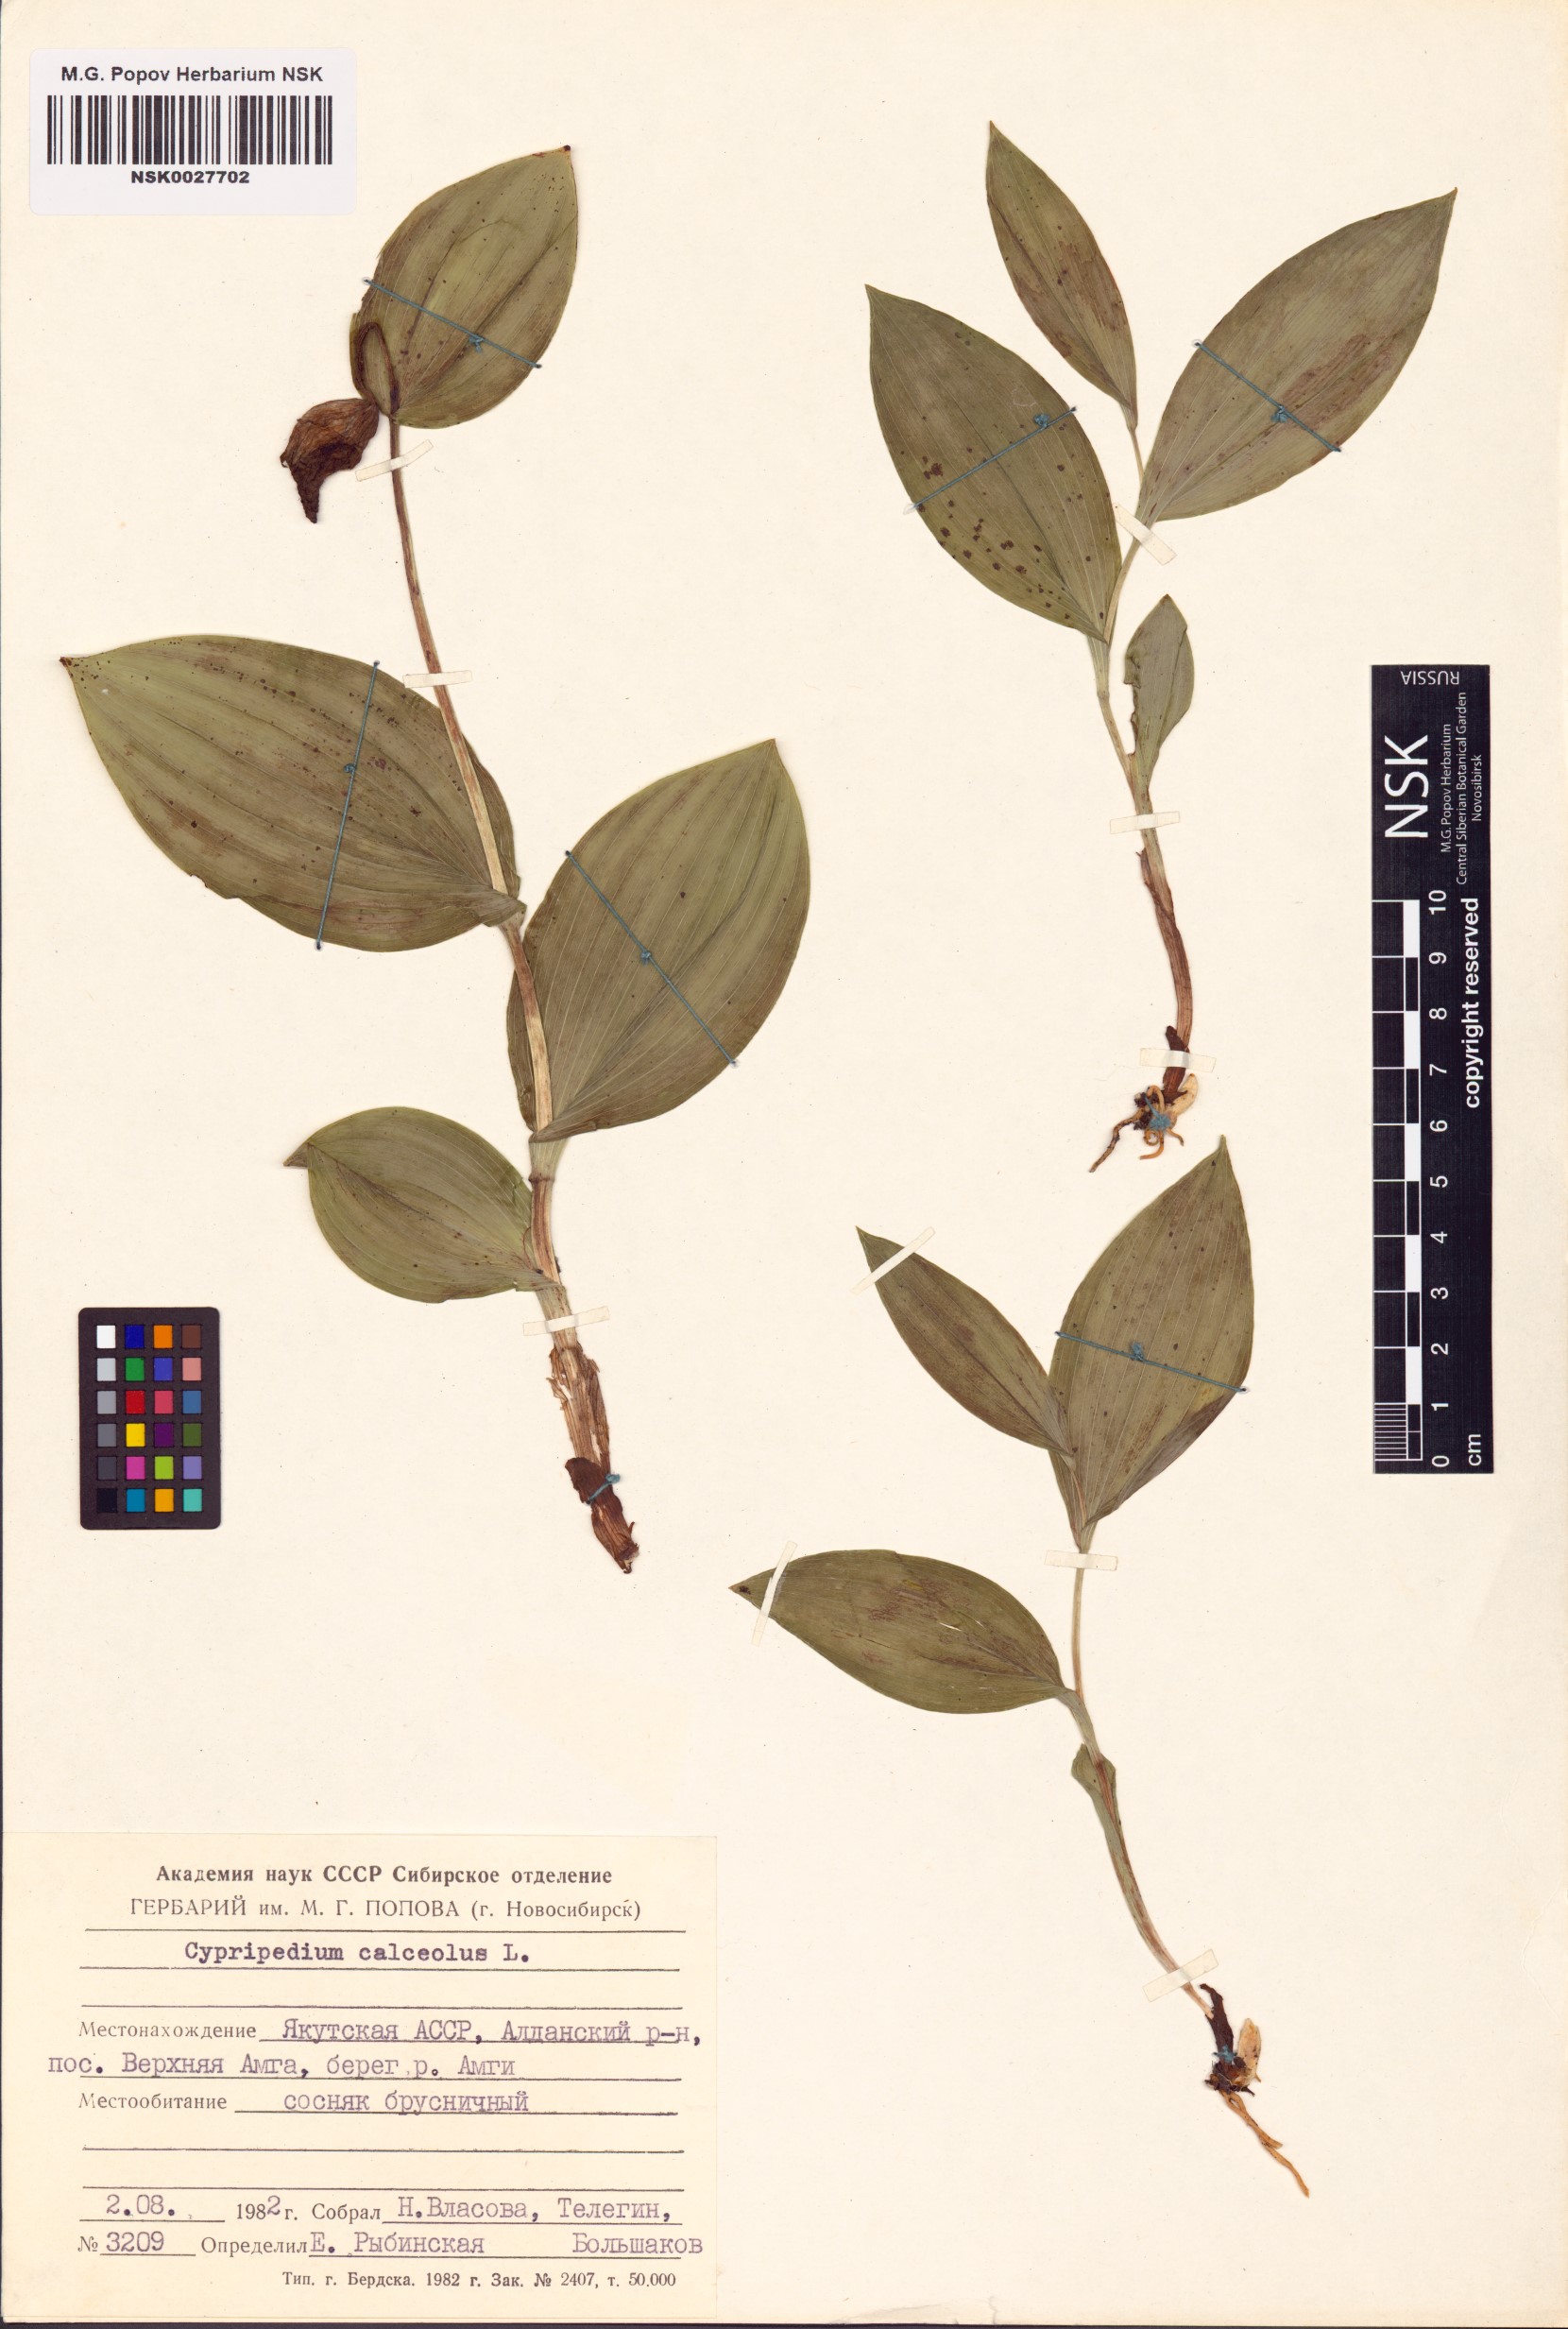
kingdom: Plantae
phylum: Tracheophyta
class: Liliopsida
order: Asparagales
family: Orchidaceae
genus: Cypripedium
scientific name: Cypripedium calceolus
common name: Lady's-slipper
